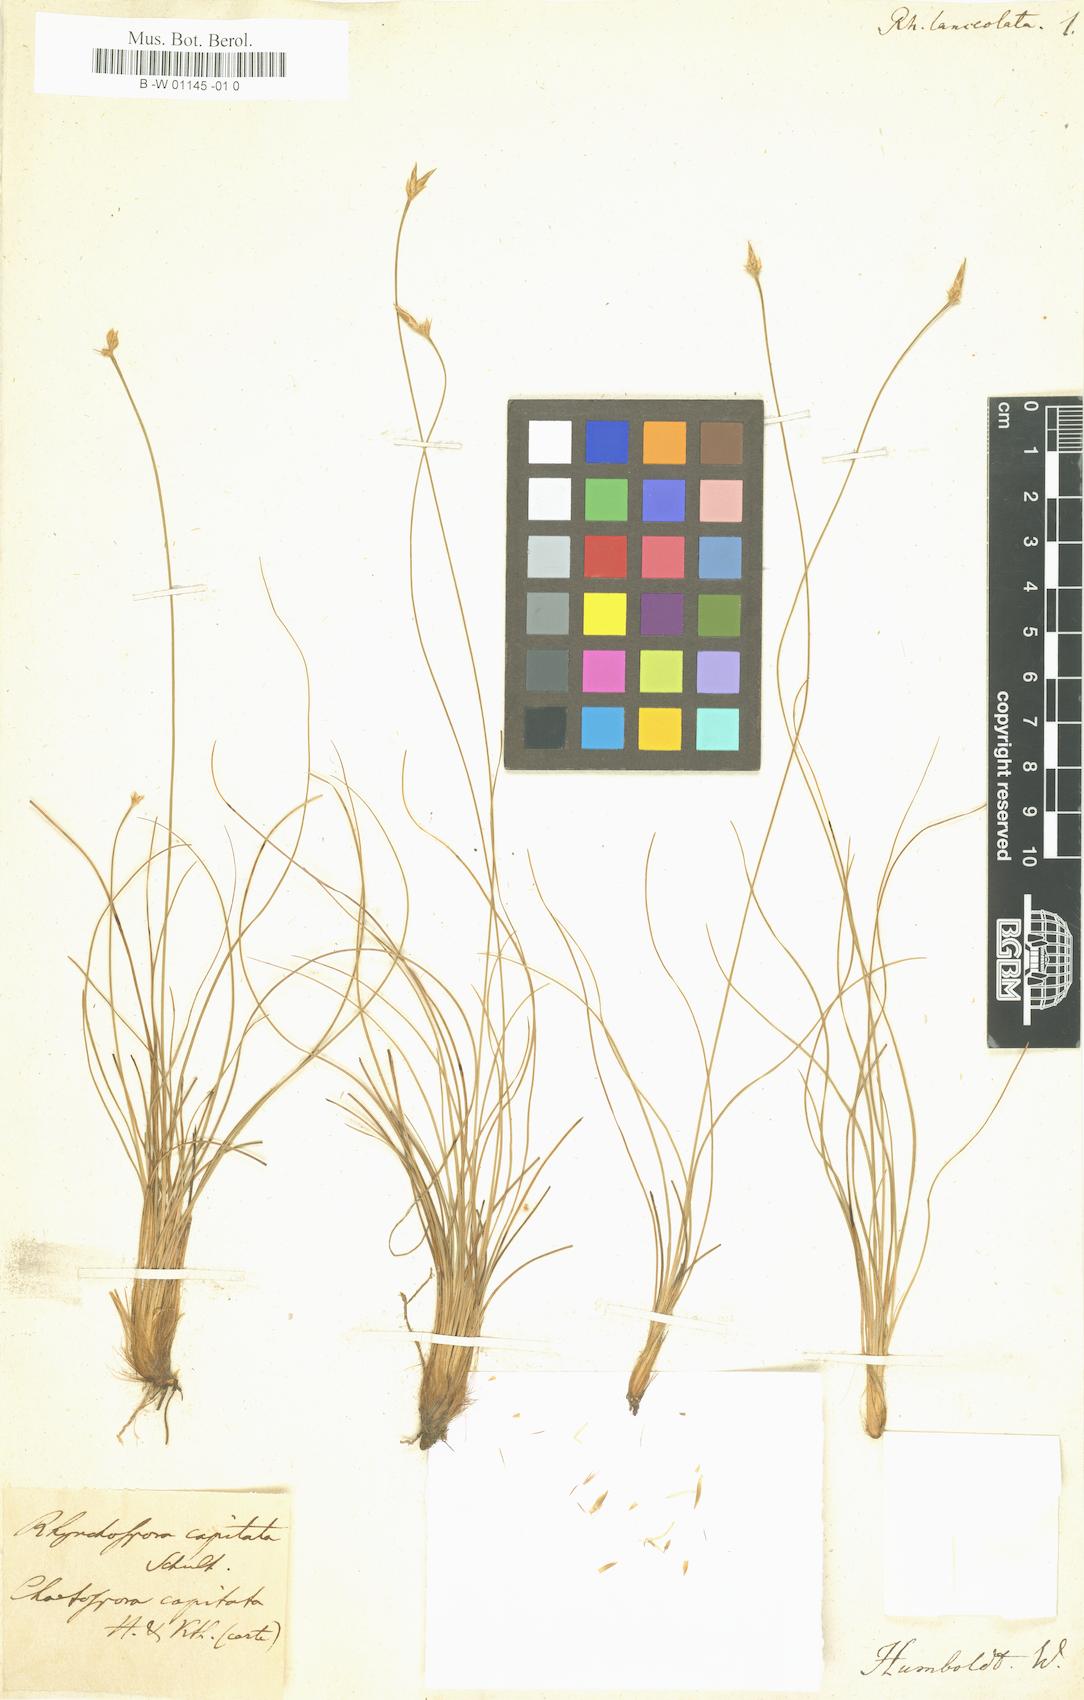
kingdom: Plantae
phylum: Tracheophyta
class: Liliopsida
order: Poales
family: Cyperaceae
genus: Rhynchospora
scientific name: Rhynchospora capitata
